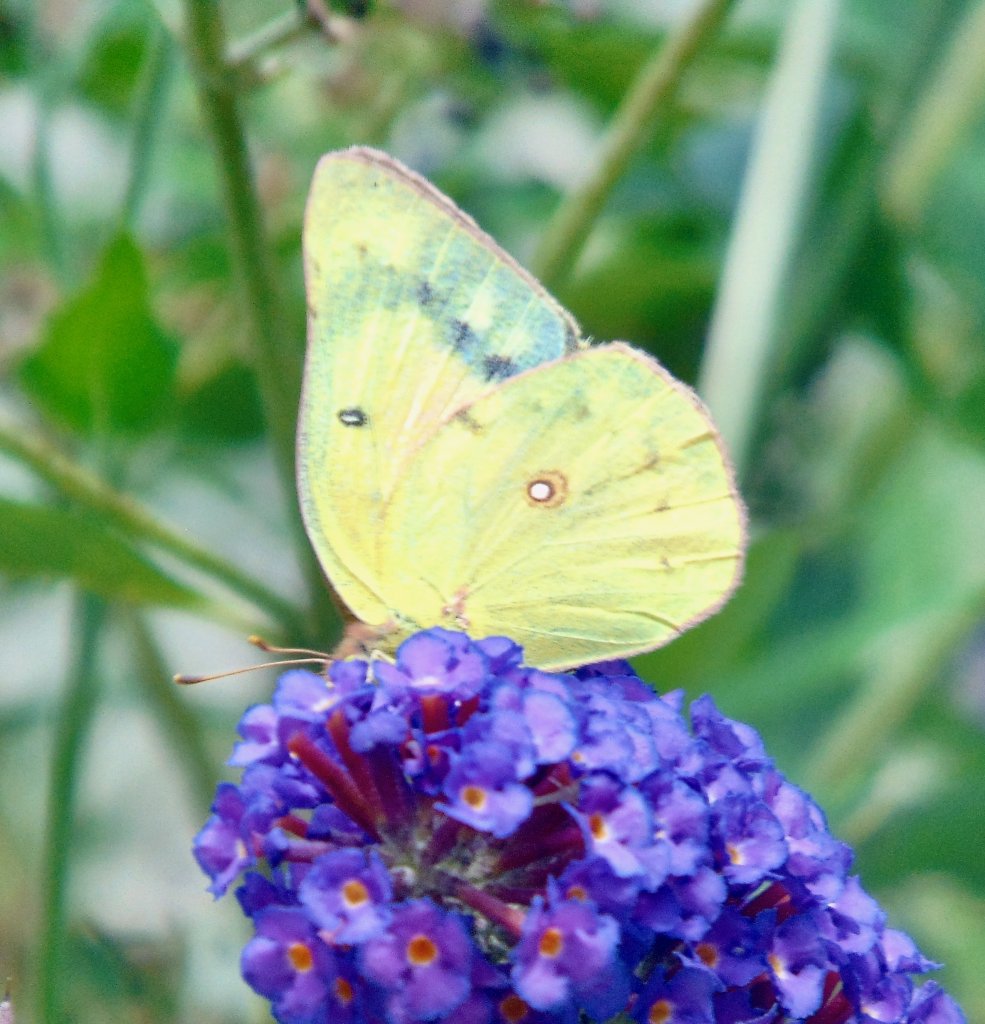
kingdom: Animalia
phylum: Arthropoda
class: Insecta
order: Lepidoptera
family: Pieridae
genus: Colias
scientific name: Colias eurytheme
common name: Orange Sulphur
